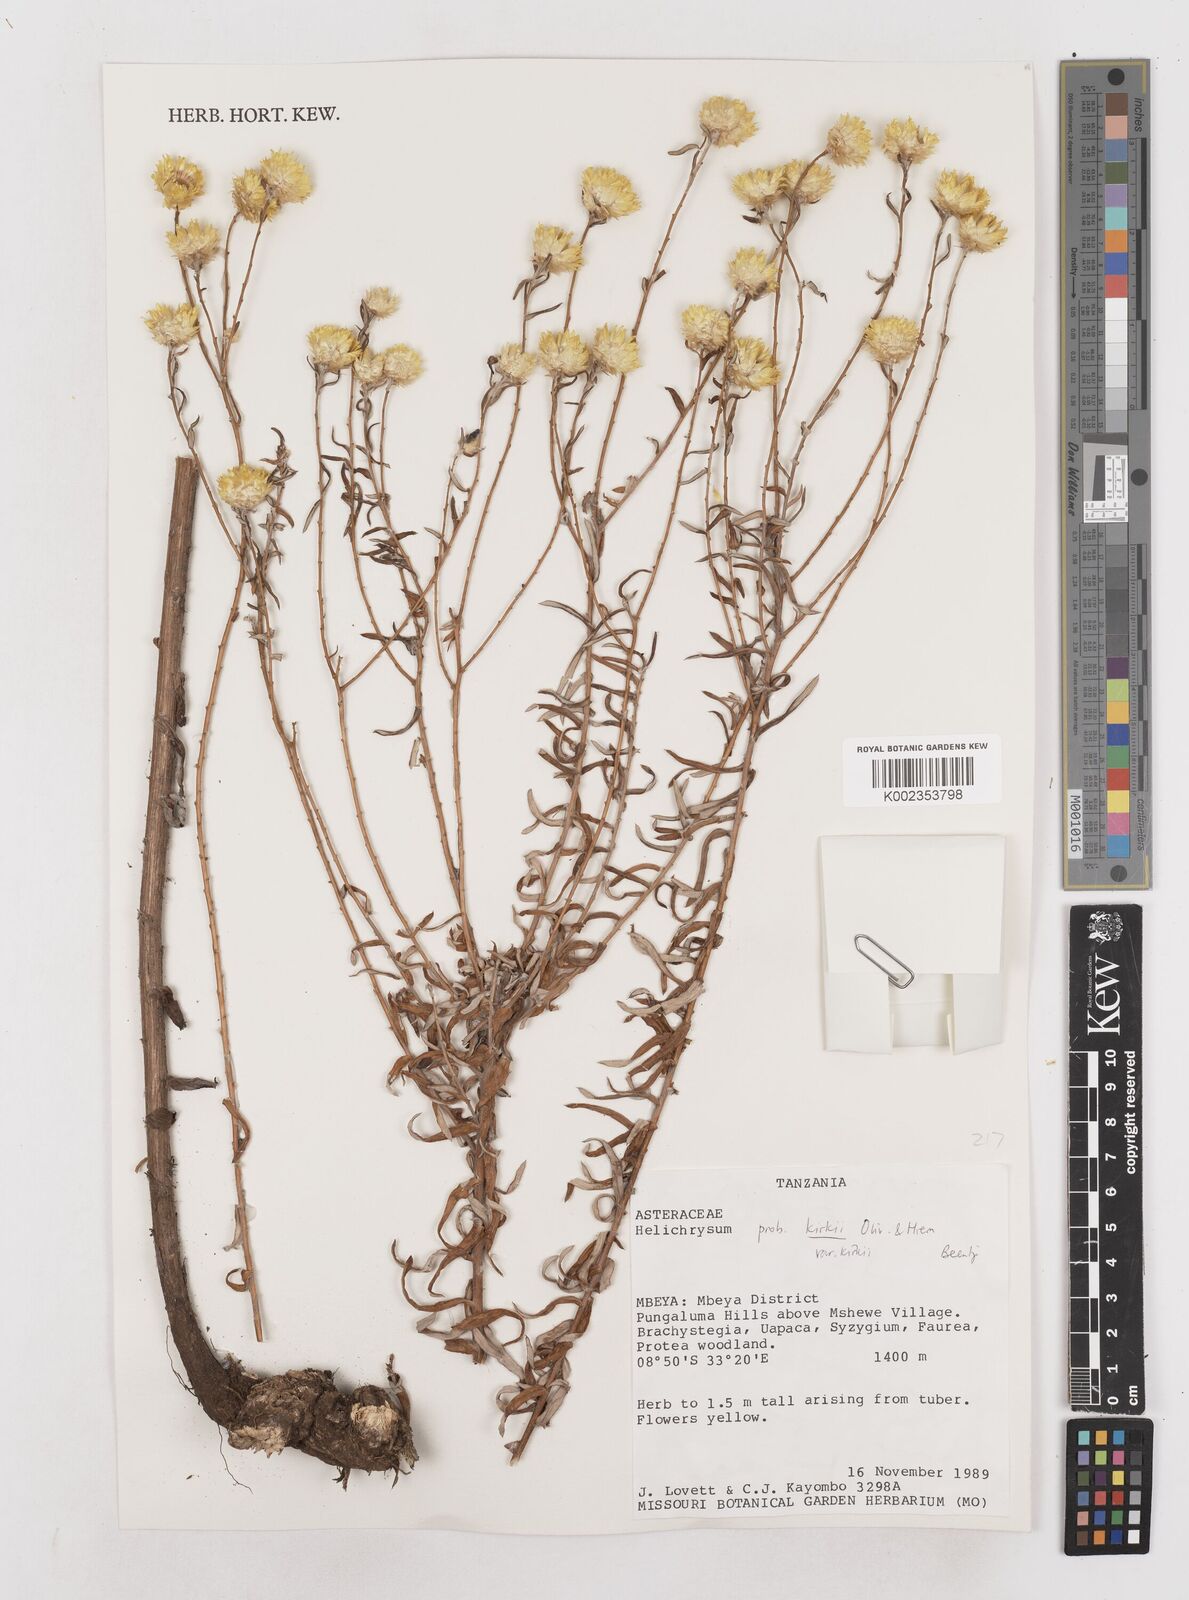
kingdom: Plantae
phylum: Tracheophyta
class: Magnoliopsida
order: Asterales
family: Asteraceae
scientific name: Asteraceae
